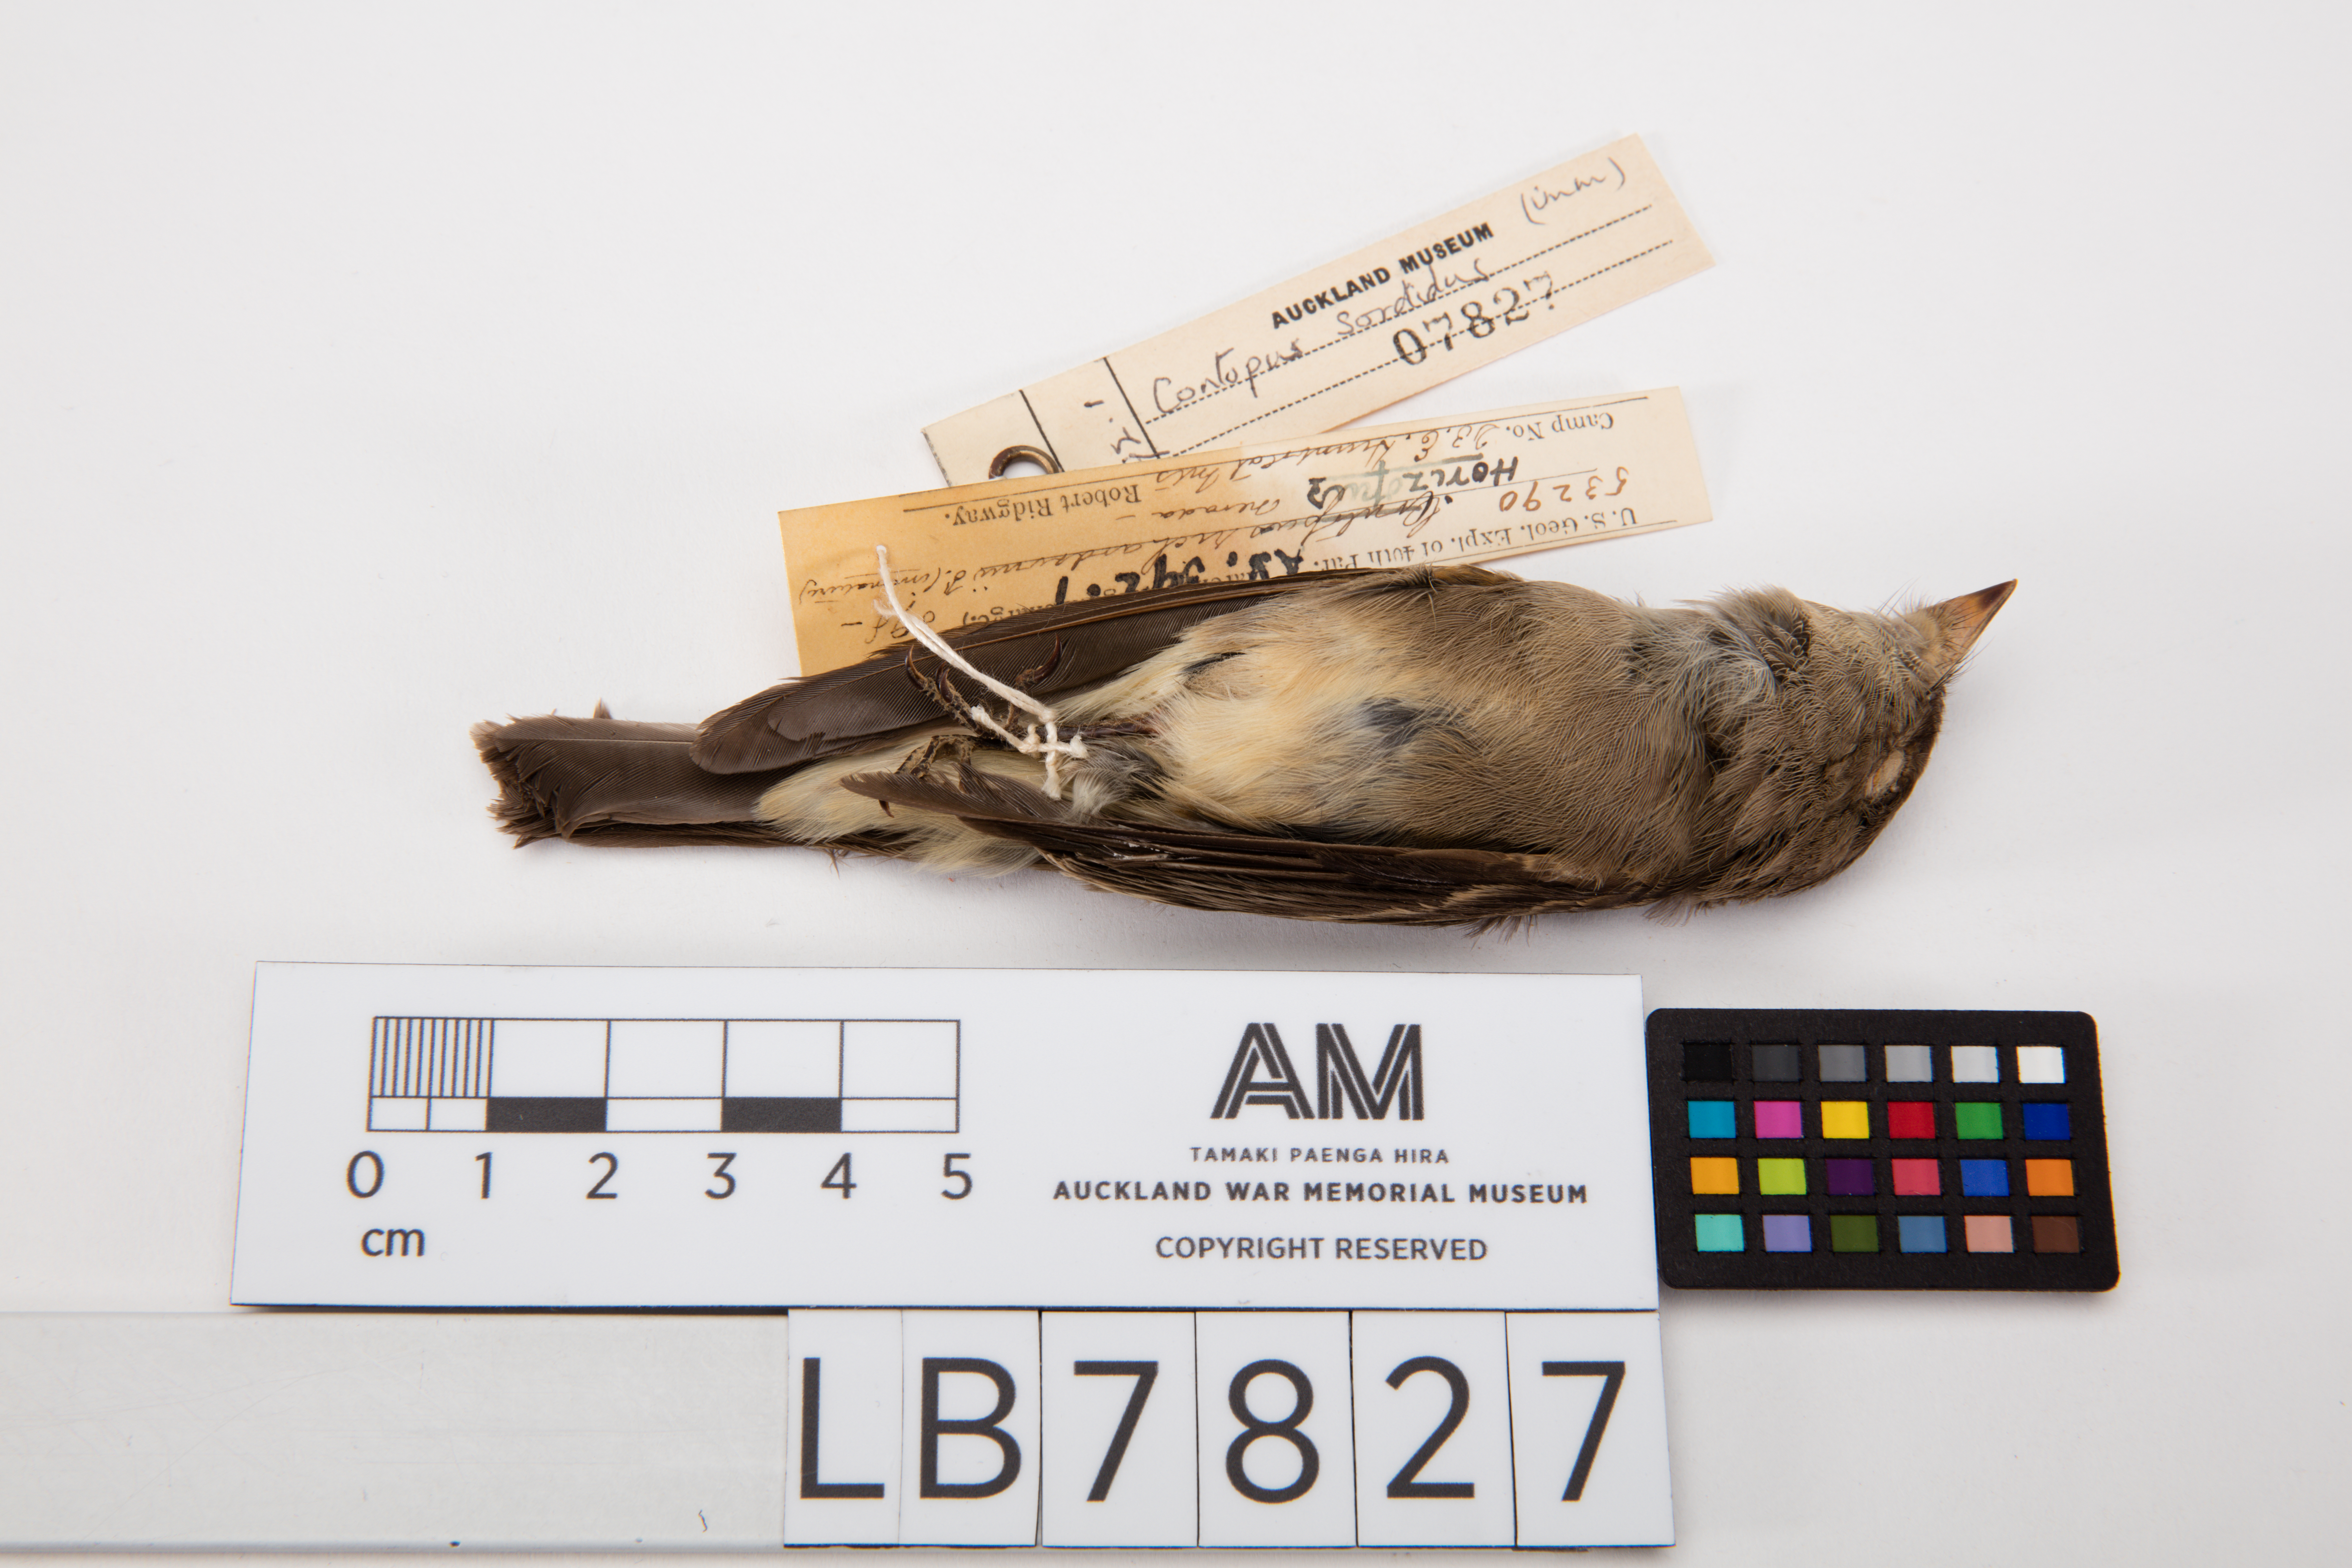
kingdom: Animalia
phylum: Chordata
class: Aves
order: Passeriformes
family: Tyrannidae
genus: Contopus
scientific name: Contopus sordidulus
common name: Western wood-pewee
